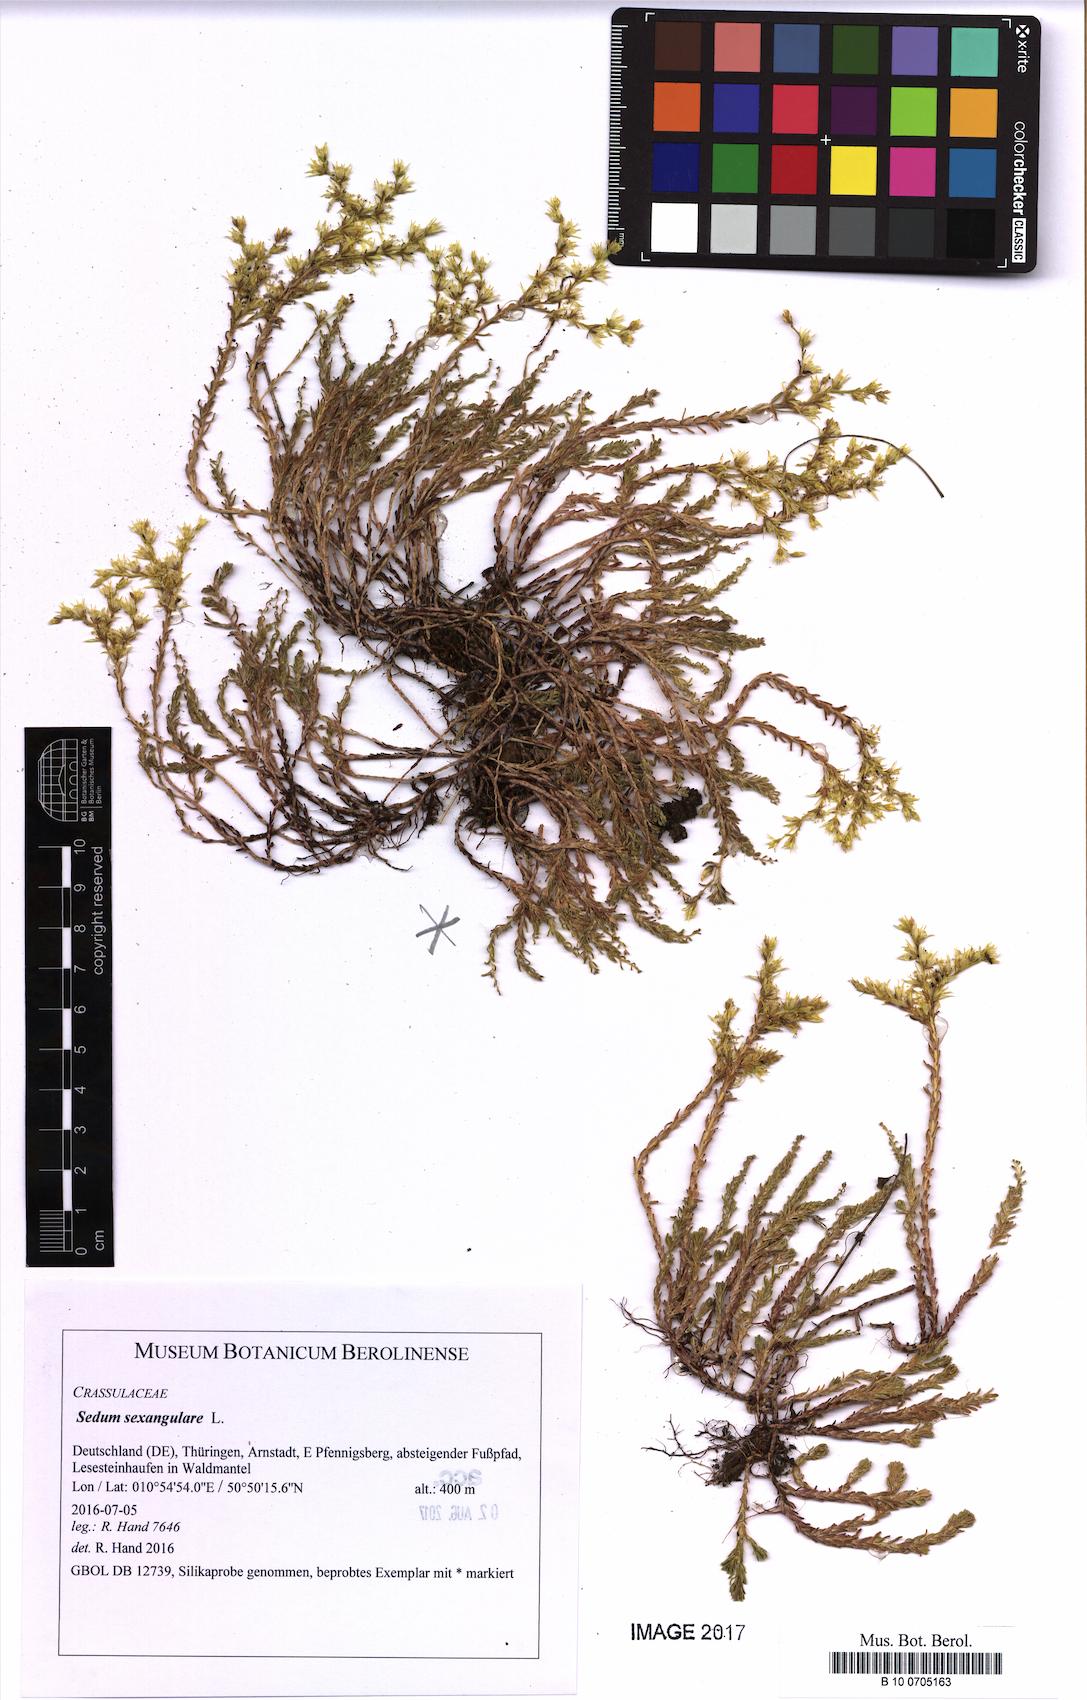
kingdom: Plantae
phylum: Tracheophyta
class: Magnoliopsida
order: Saxifragales
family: Crassulaceae
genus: Sedum
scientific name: Sedum sexangulare
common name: Tasteless stonecrop
